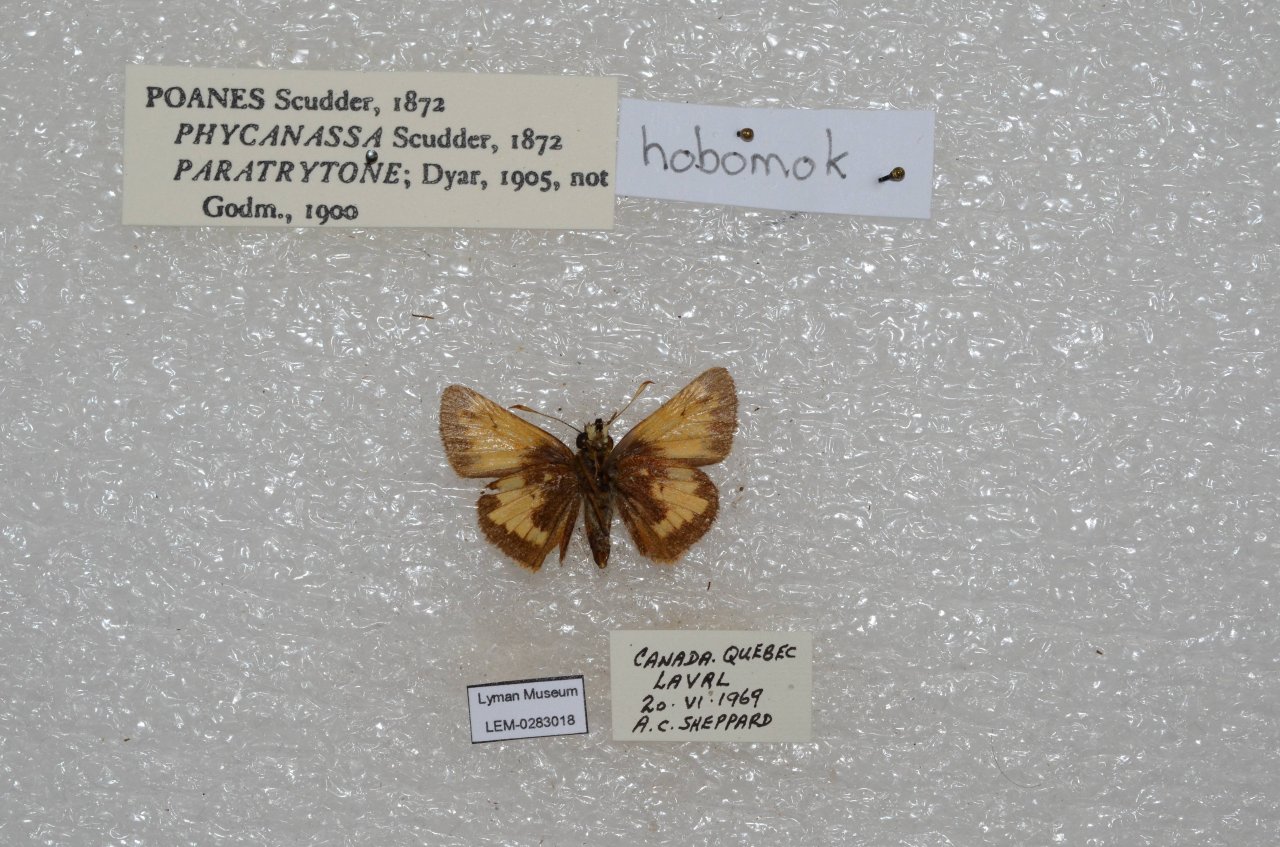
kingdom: Animalia
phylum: Arthropoda
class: Insecta
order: Lepidoptera
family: Hesperiidae
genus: Lon
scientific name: Lon hobomok
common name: Hobomok Skipper
